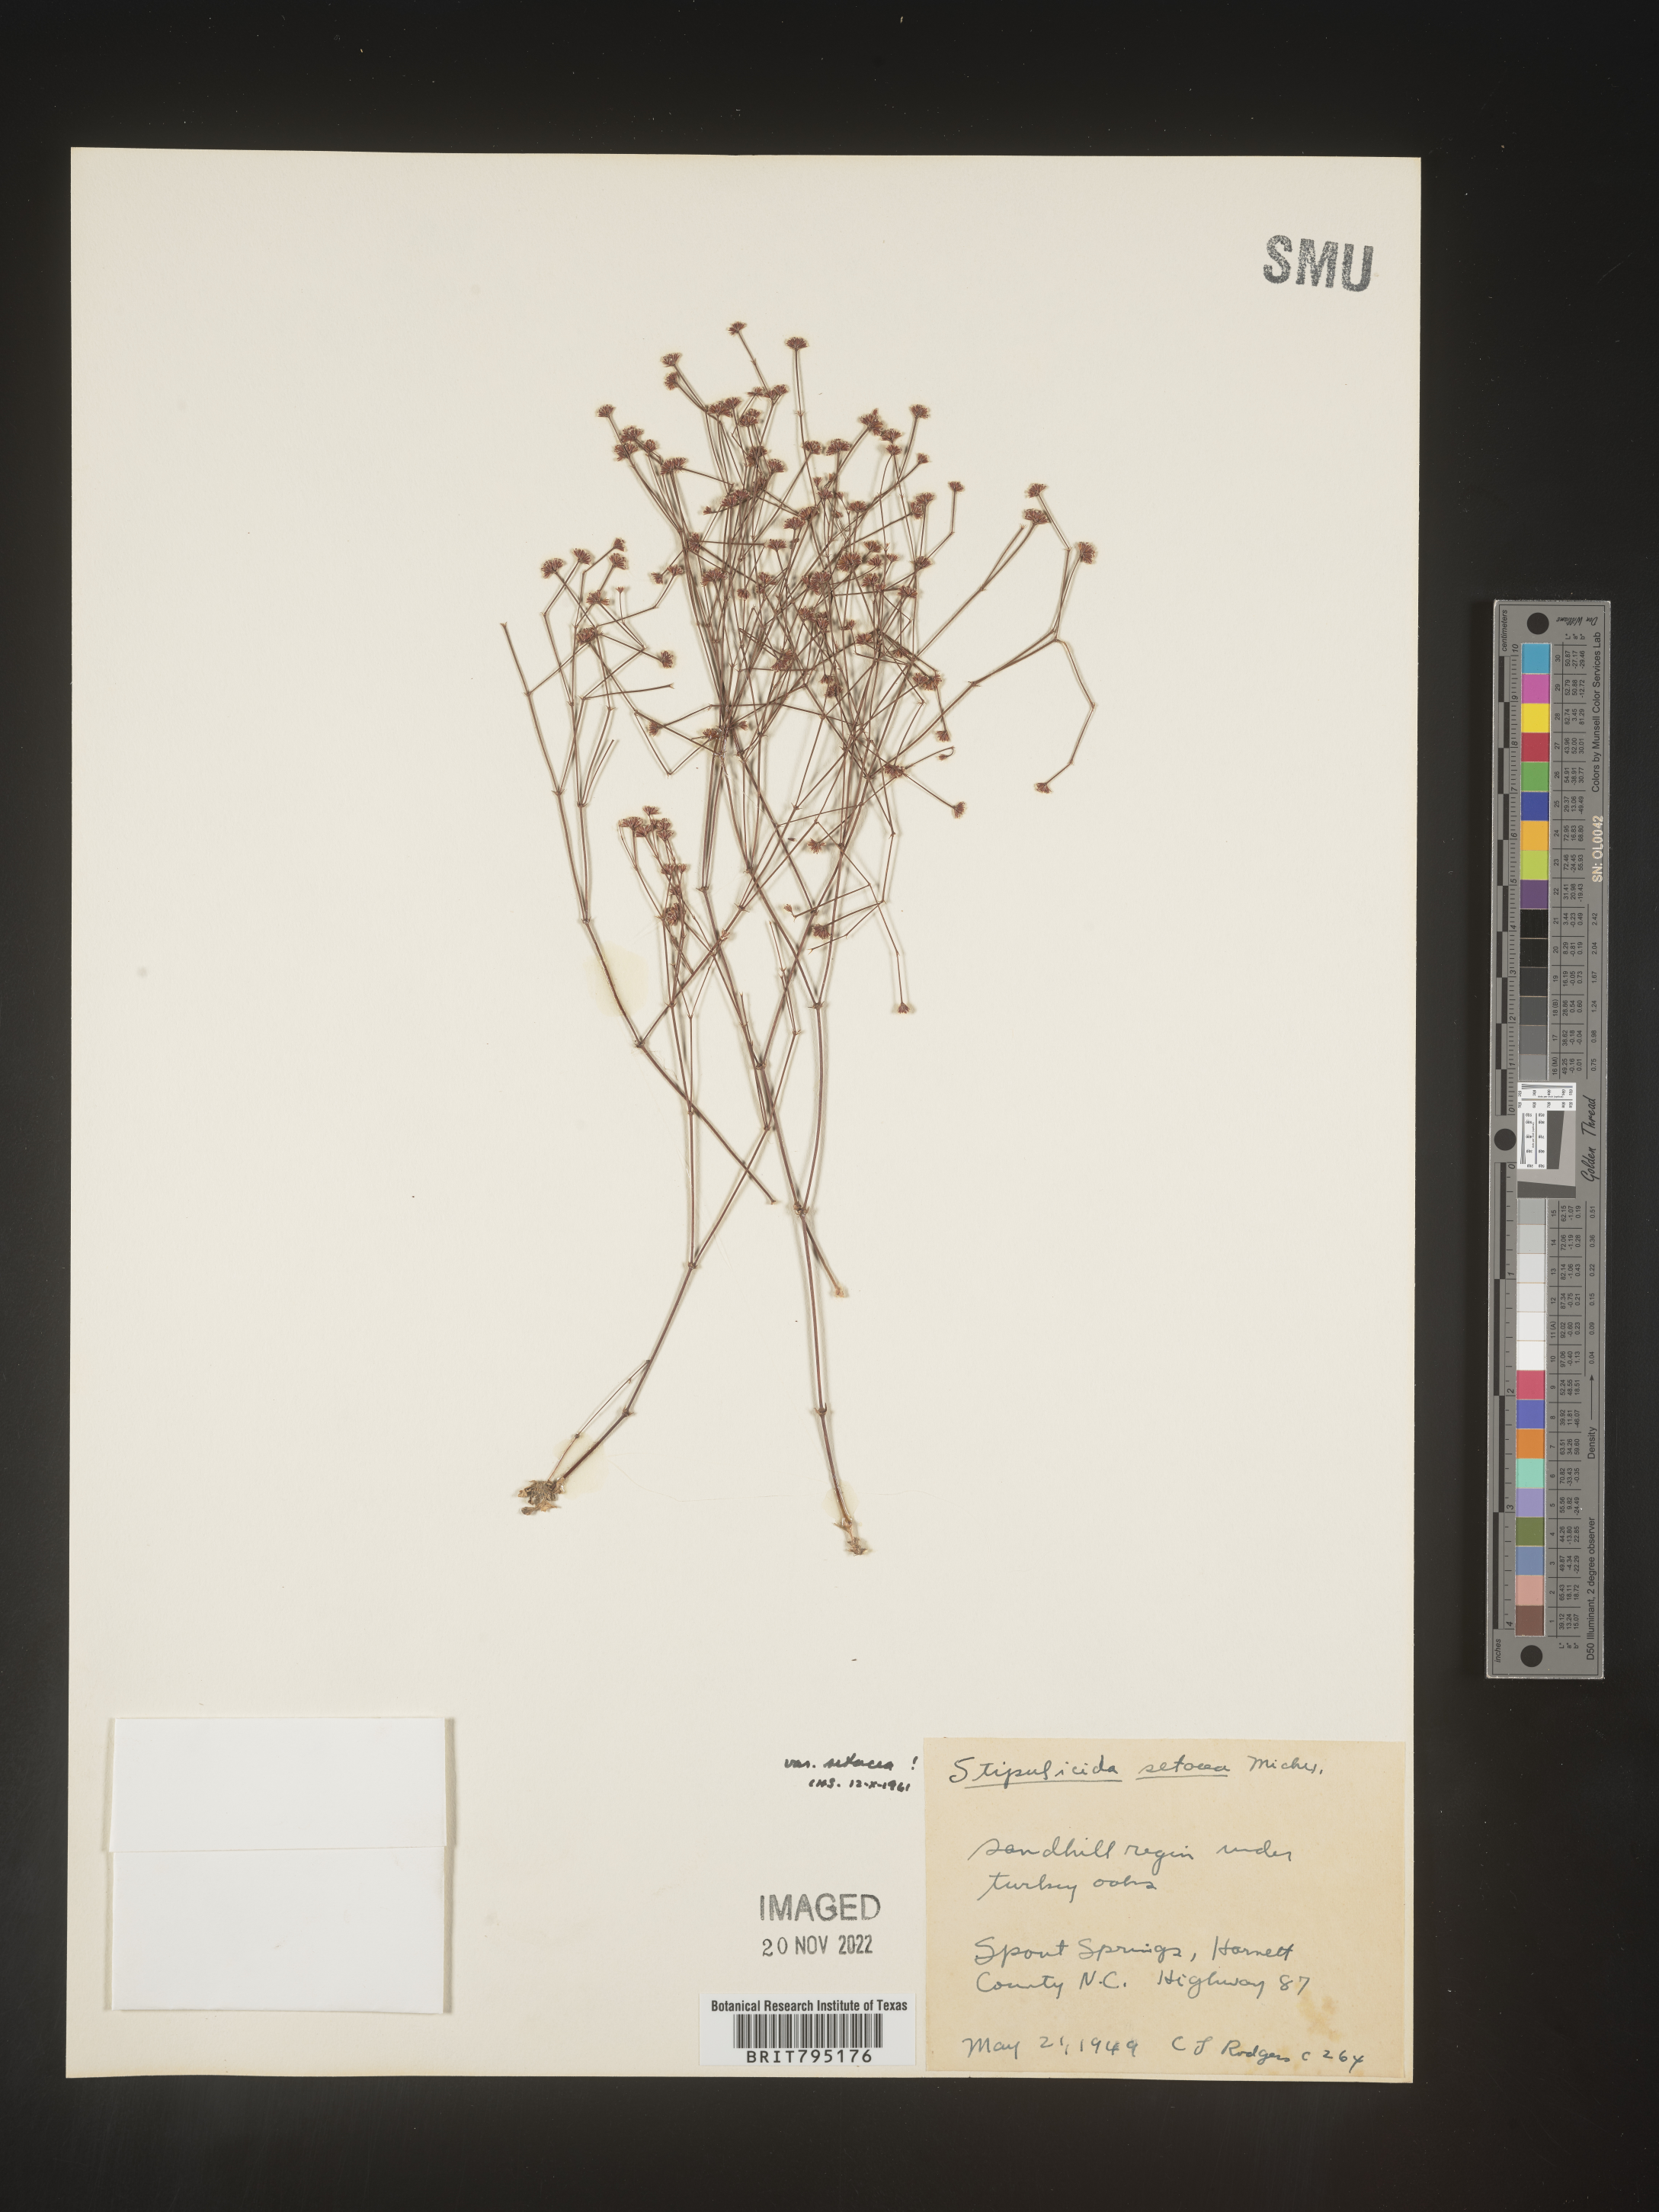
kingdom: Plantae
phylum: Tracheophyta
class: Magnoliopsida
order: Caryophyllales
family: Caryophyllaceae
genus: Stipulicida
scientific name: Stipulicida
